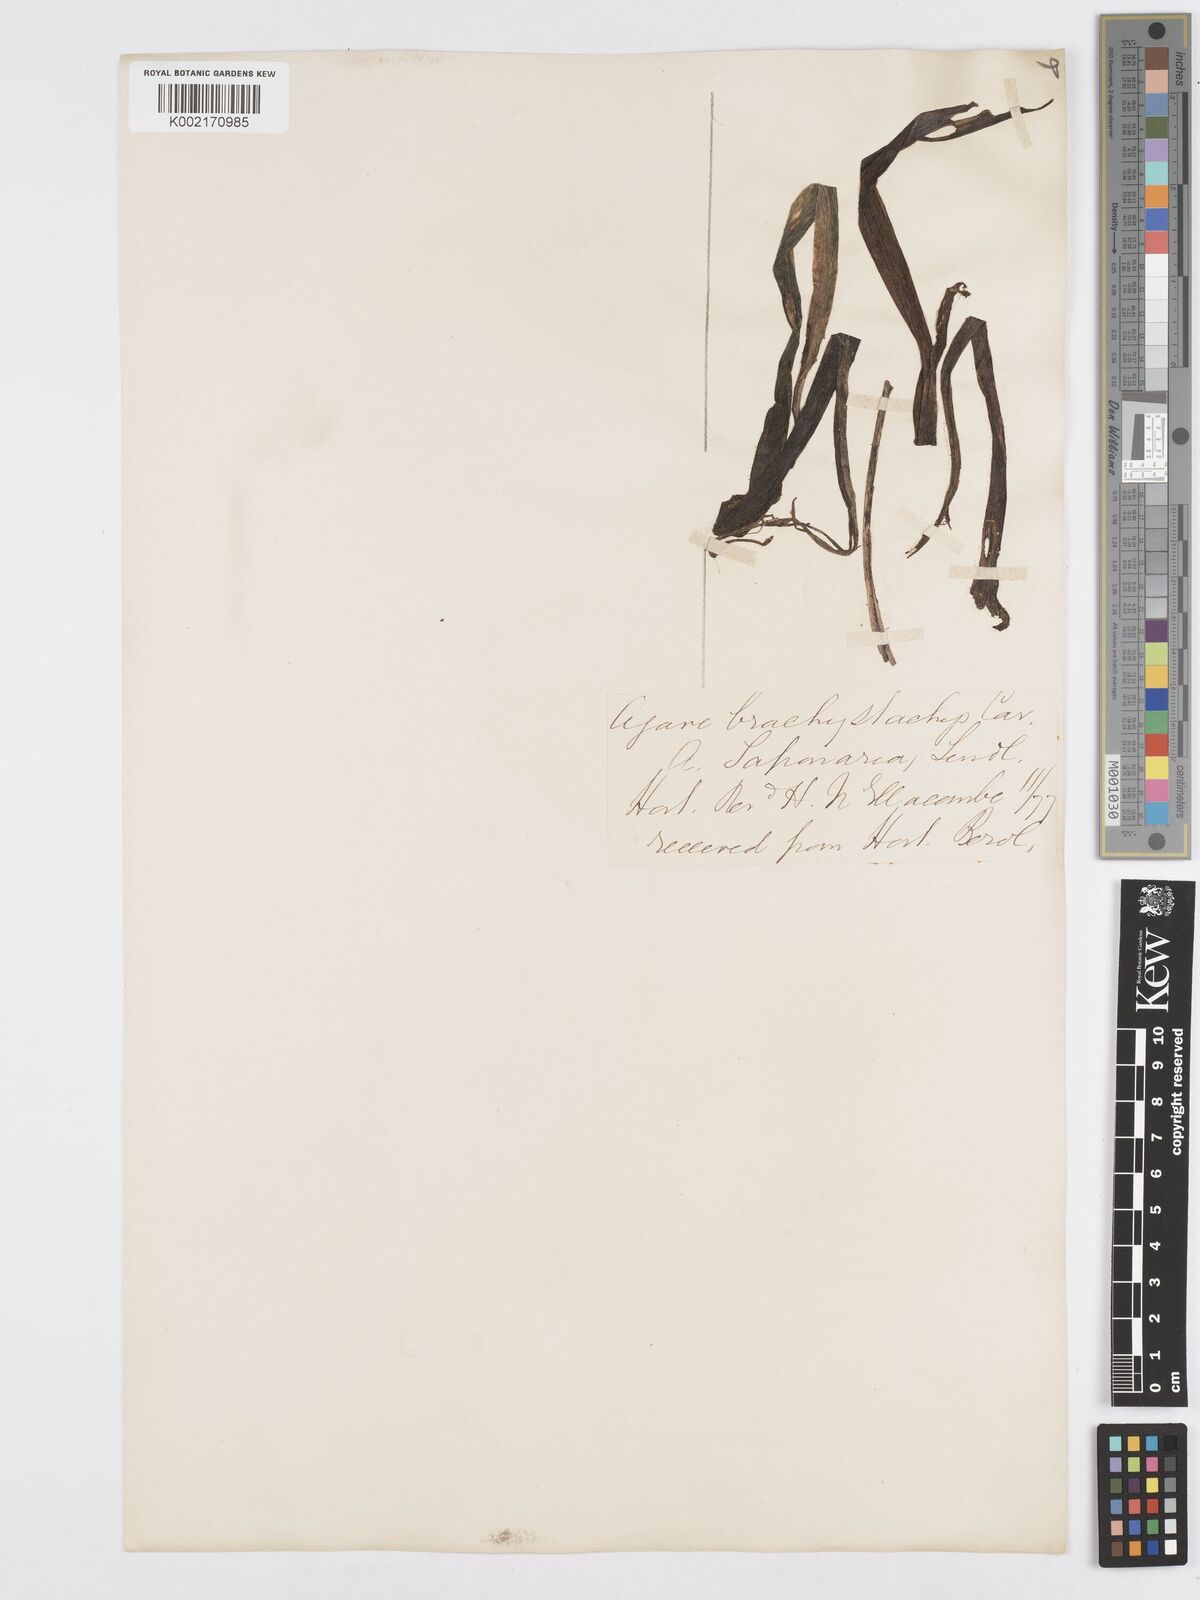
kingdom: Plantae
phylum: Tracheophyta
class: Liliopsida
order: Asparagales
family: Asparagaceae
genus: Agave
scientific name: Agave scabra
